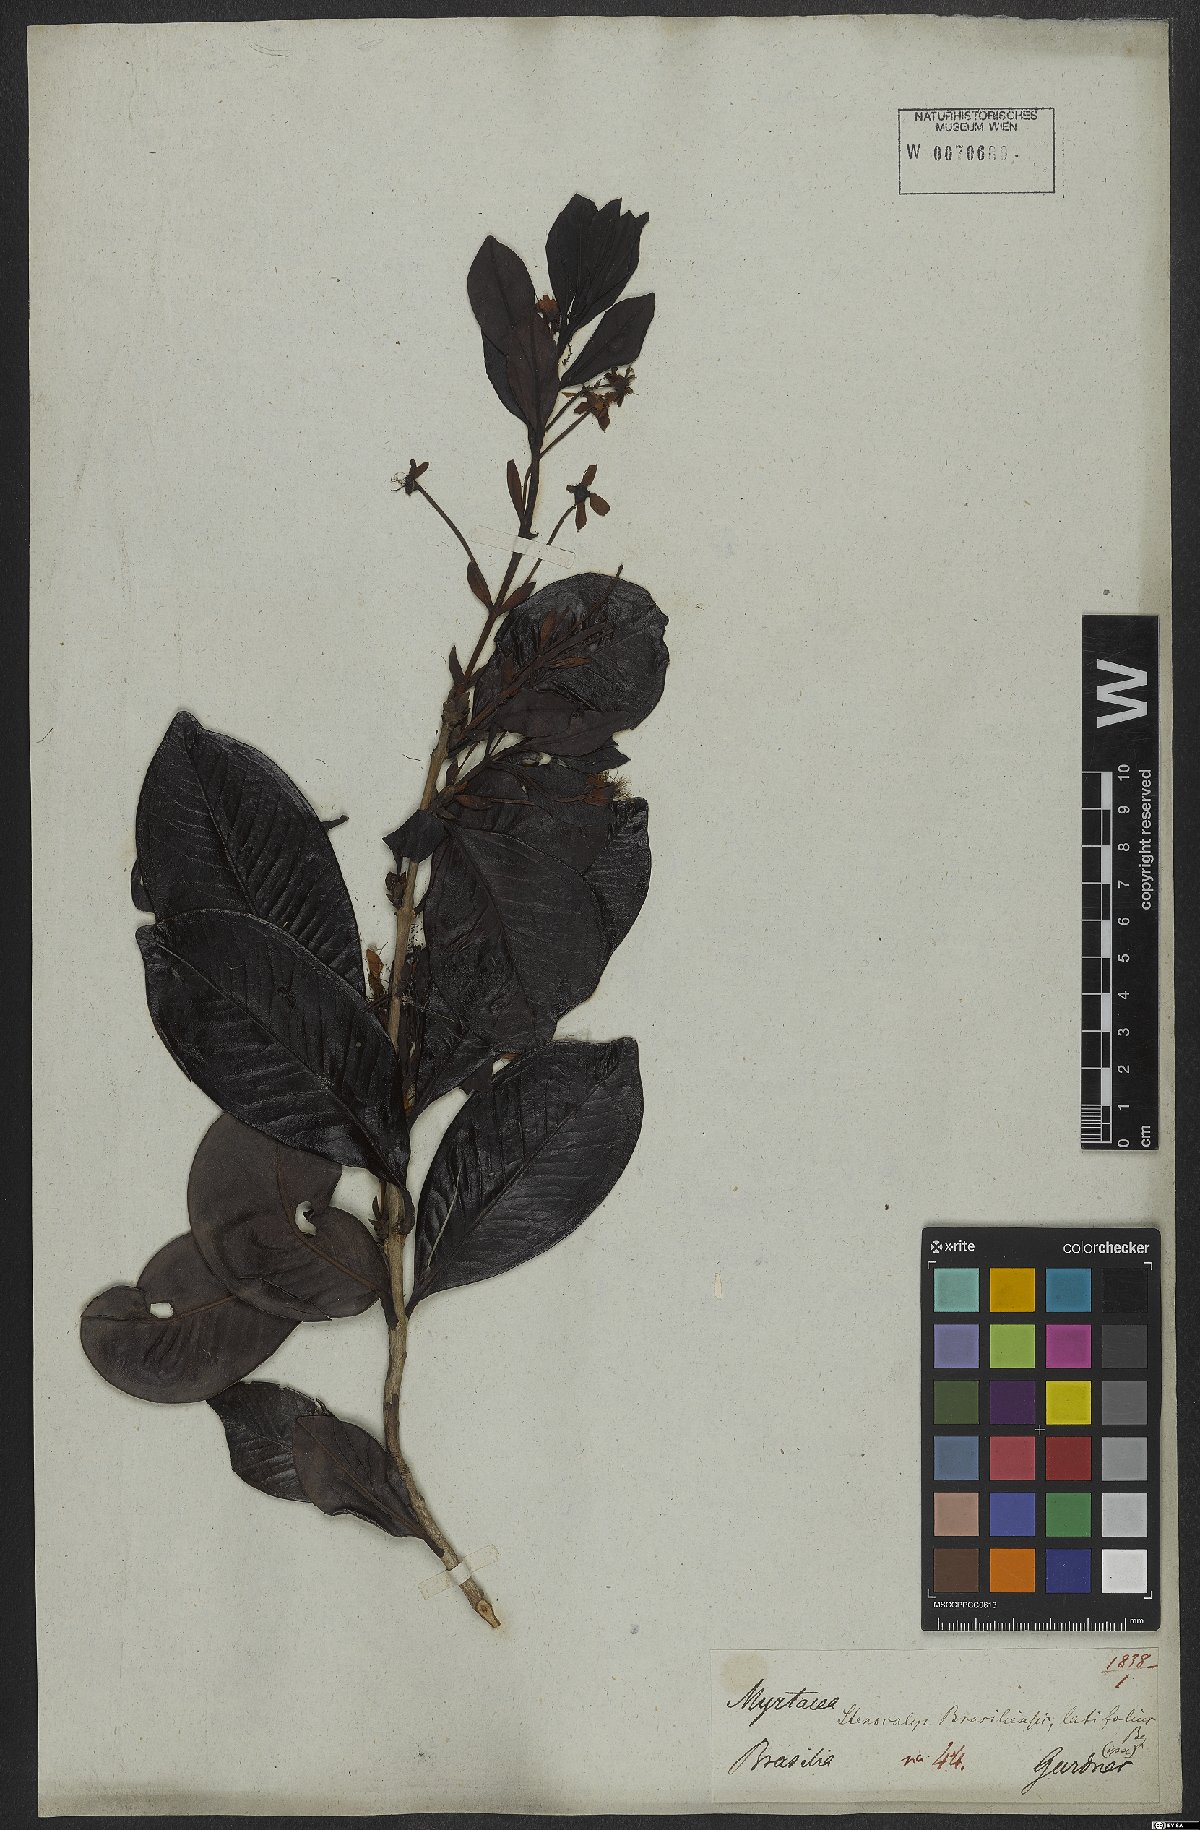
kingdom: Plantae
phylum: Tracheophyta
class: Magnoliopsida
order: Myrtales
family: Myrtaceae
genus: Eugenia
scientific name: Eugenia brasiliensis
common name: Grumichama
